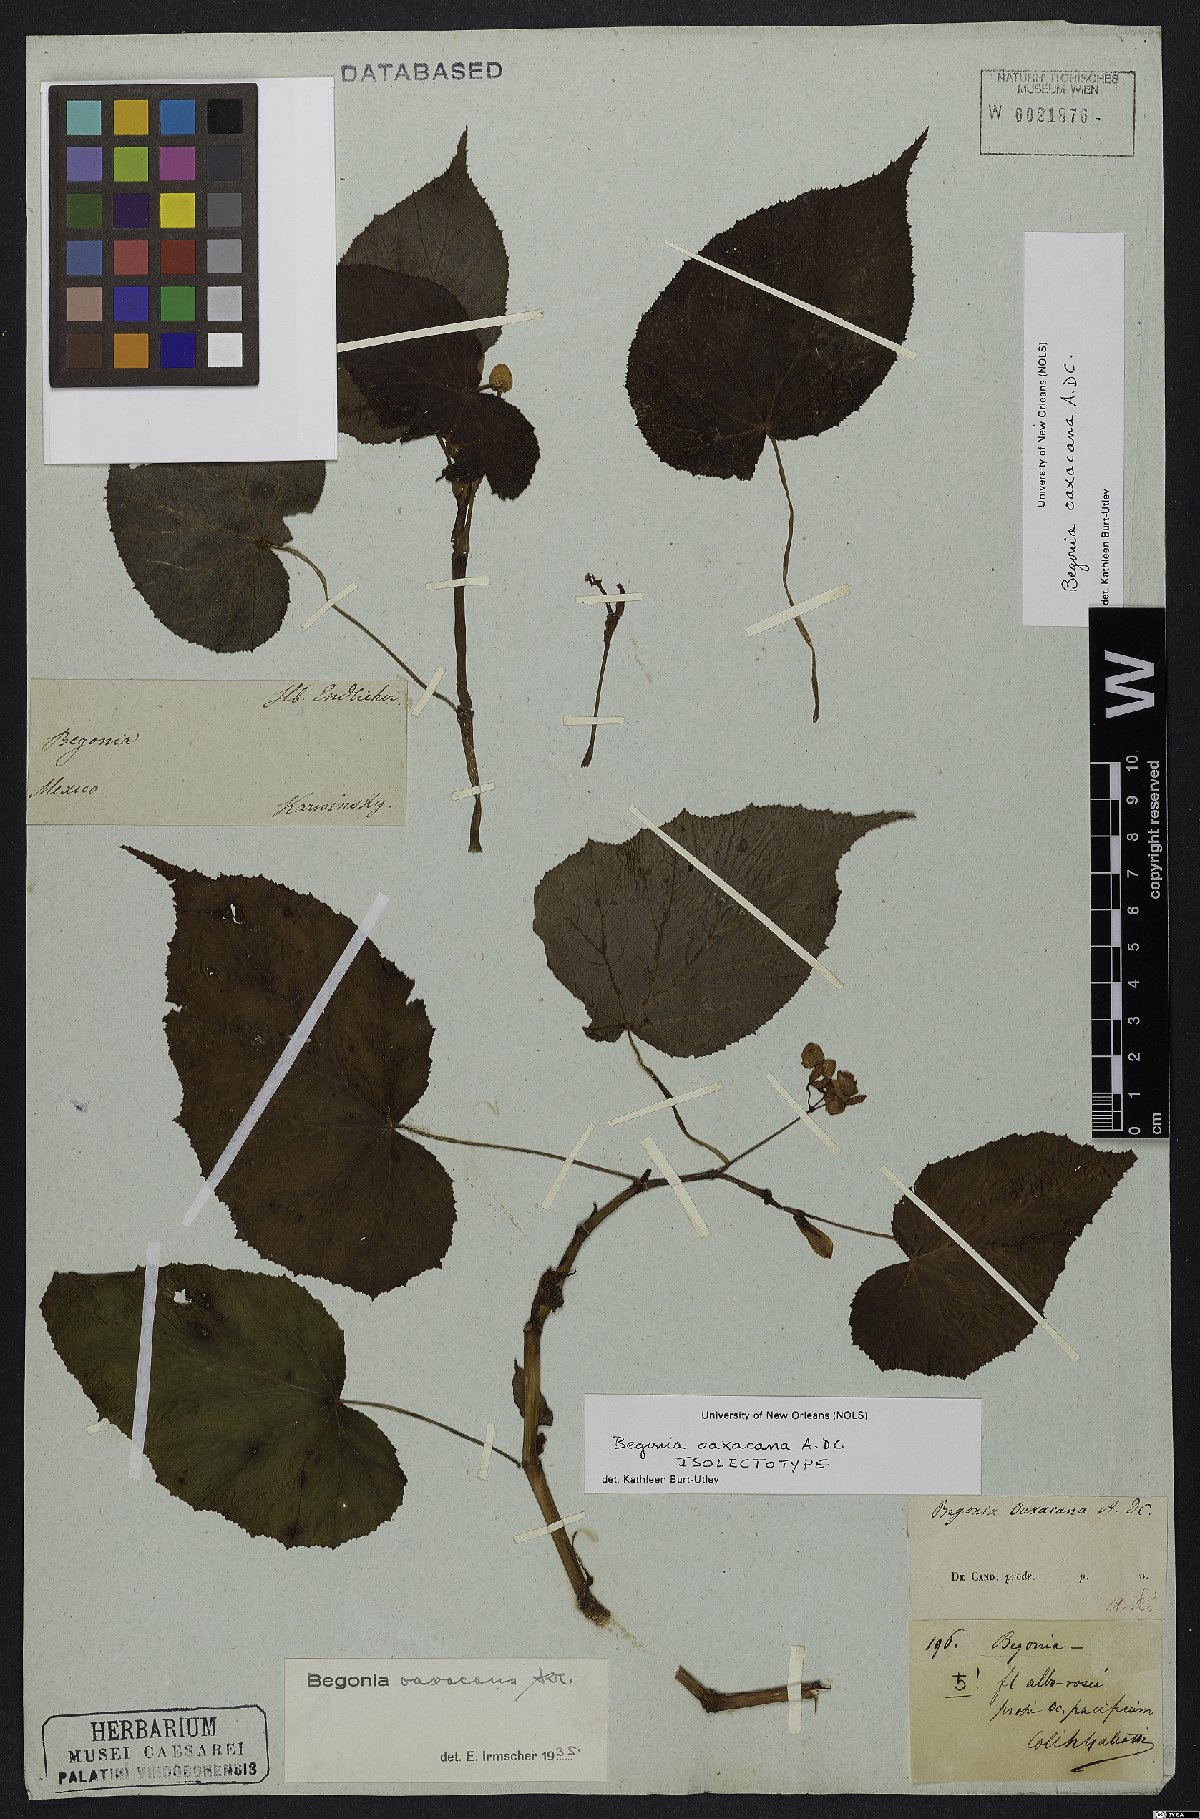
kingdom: Plantae
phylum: Tracheophyta
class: Magnoliopsida
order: Cucurbitales
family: Begoniaceae
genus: Begonia
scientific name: Begonia oaxacana
